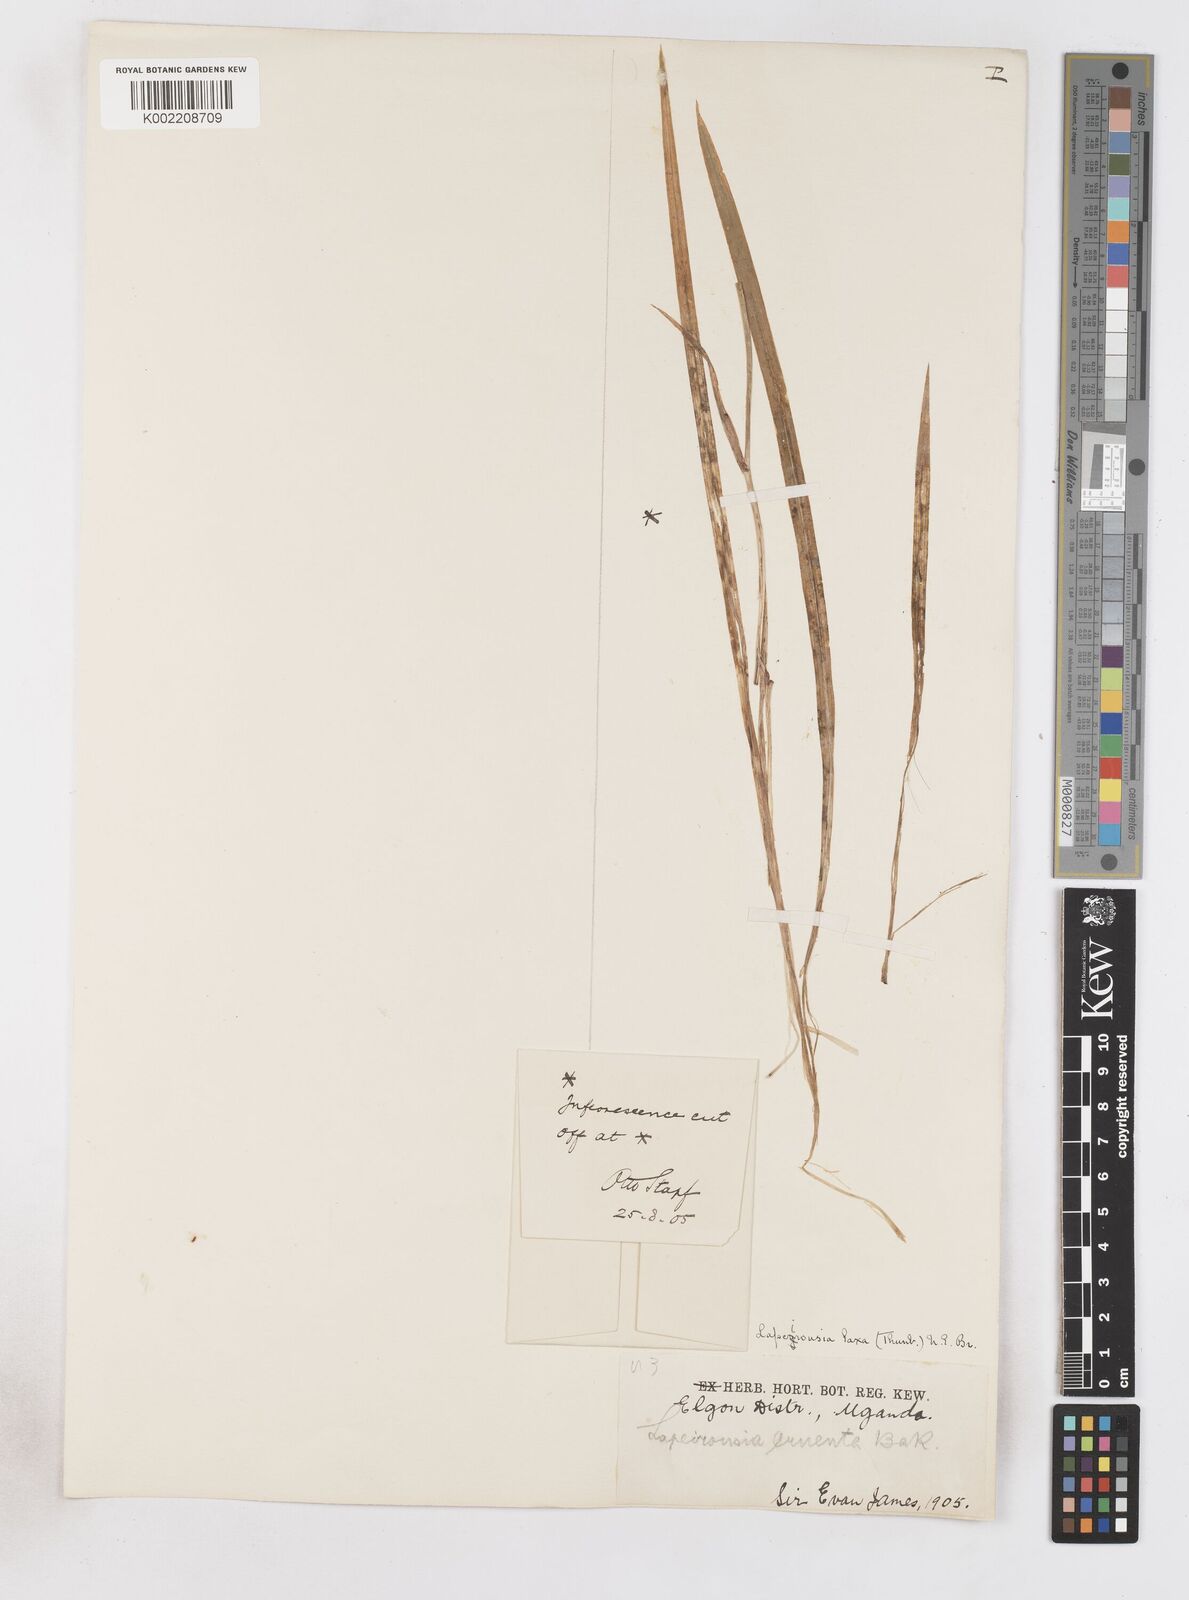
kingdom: Plantae
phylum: Tracheophyta
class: Liliopsida
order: Asparagales
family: Iridaceae
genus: Freesia
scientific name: Freesia laxa
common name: False freesia
